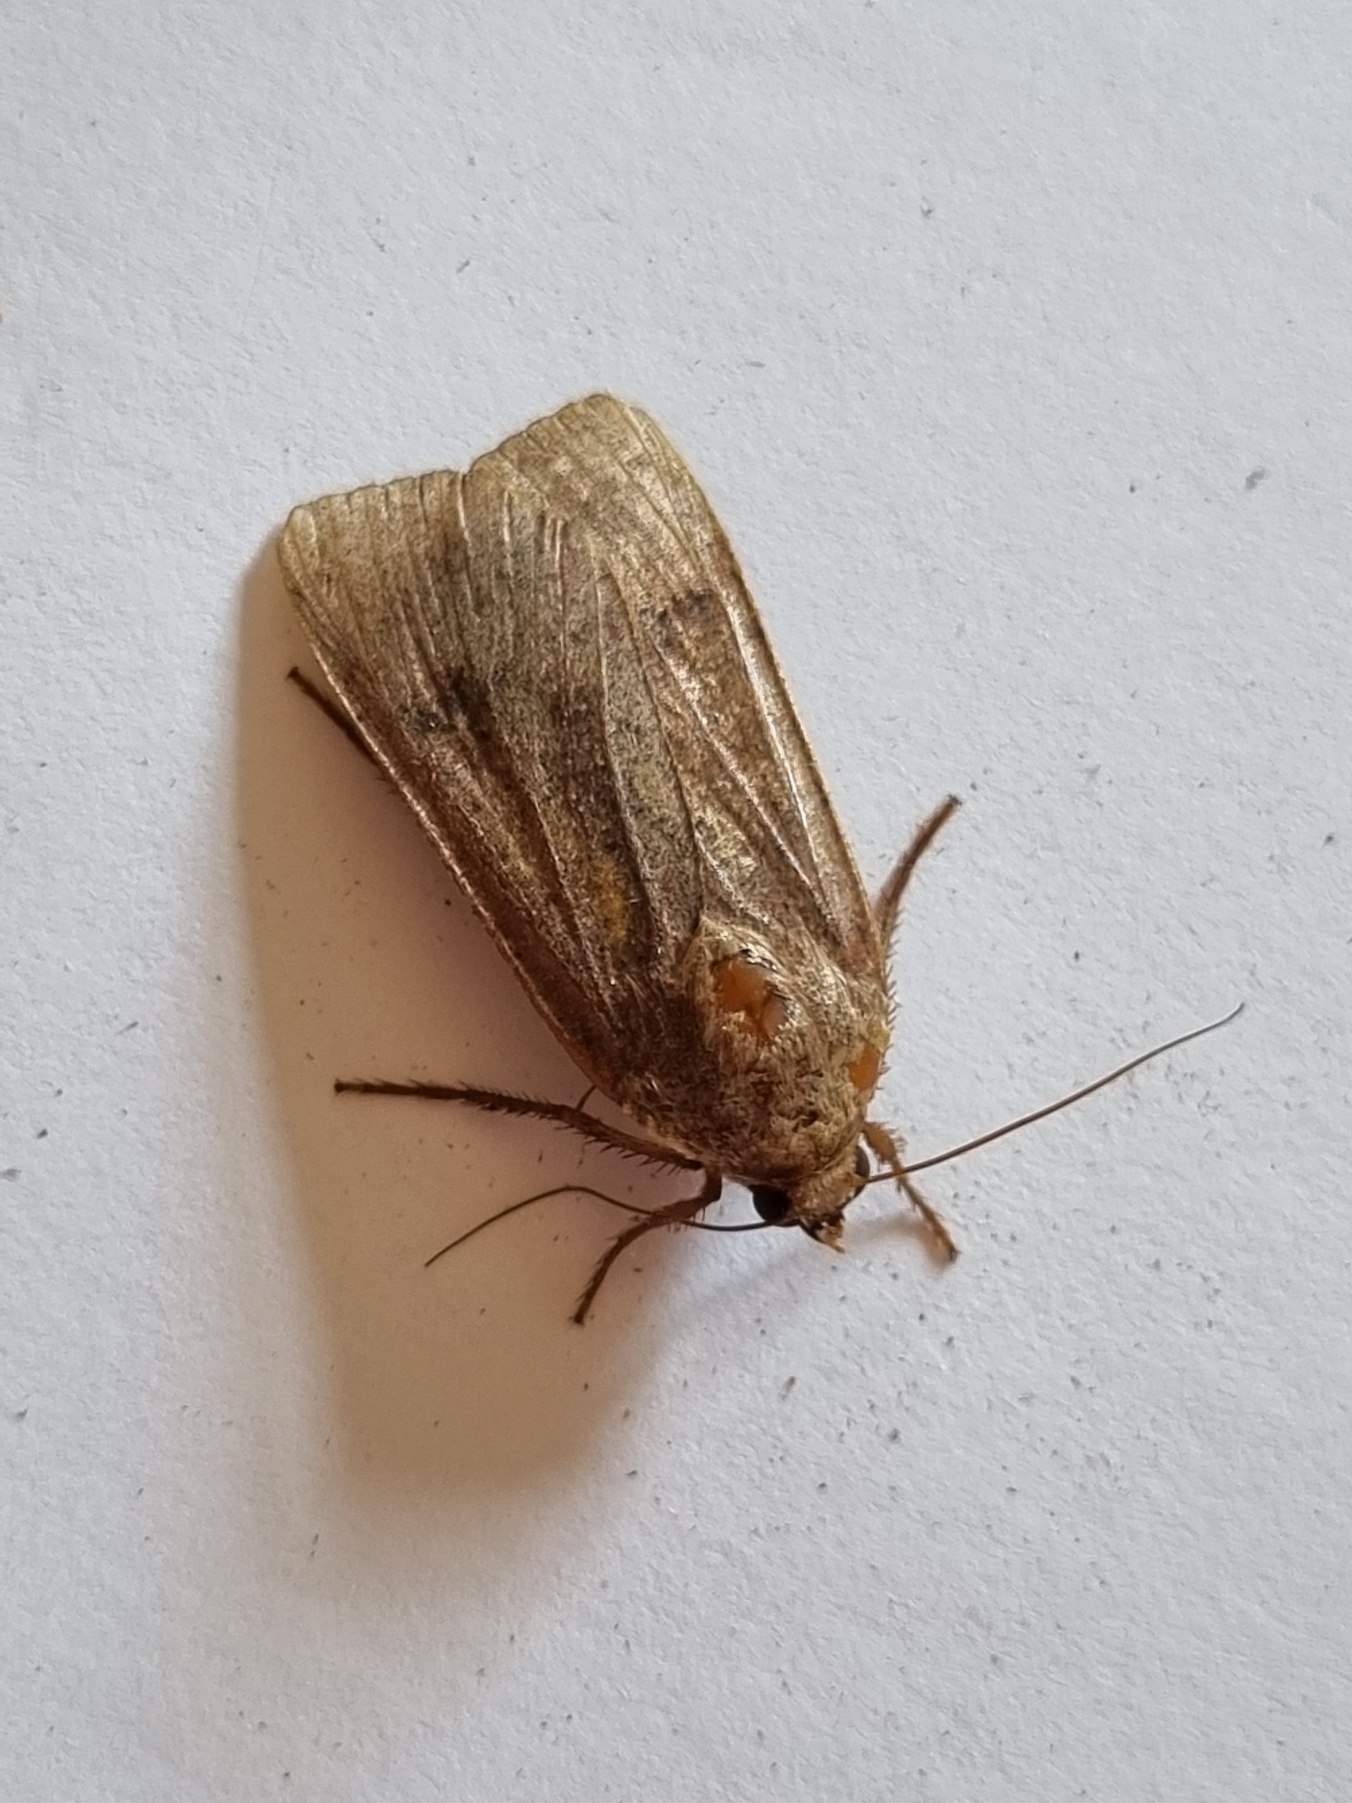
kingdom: Animalia
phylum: Arthropoda
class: Insecta
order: Lepidoptera
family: Noctuidae
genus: Noctua
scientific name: Noctua pronuba
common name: Stor smutugle
